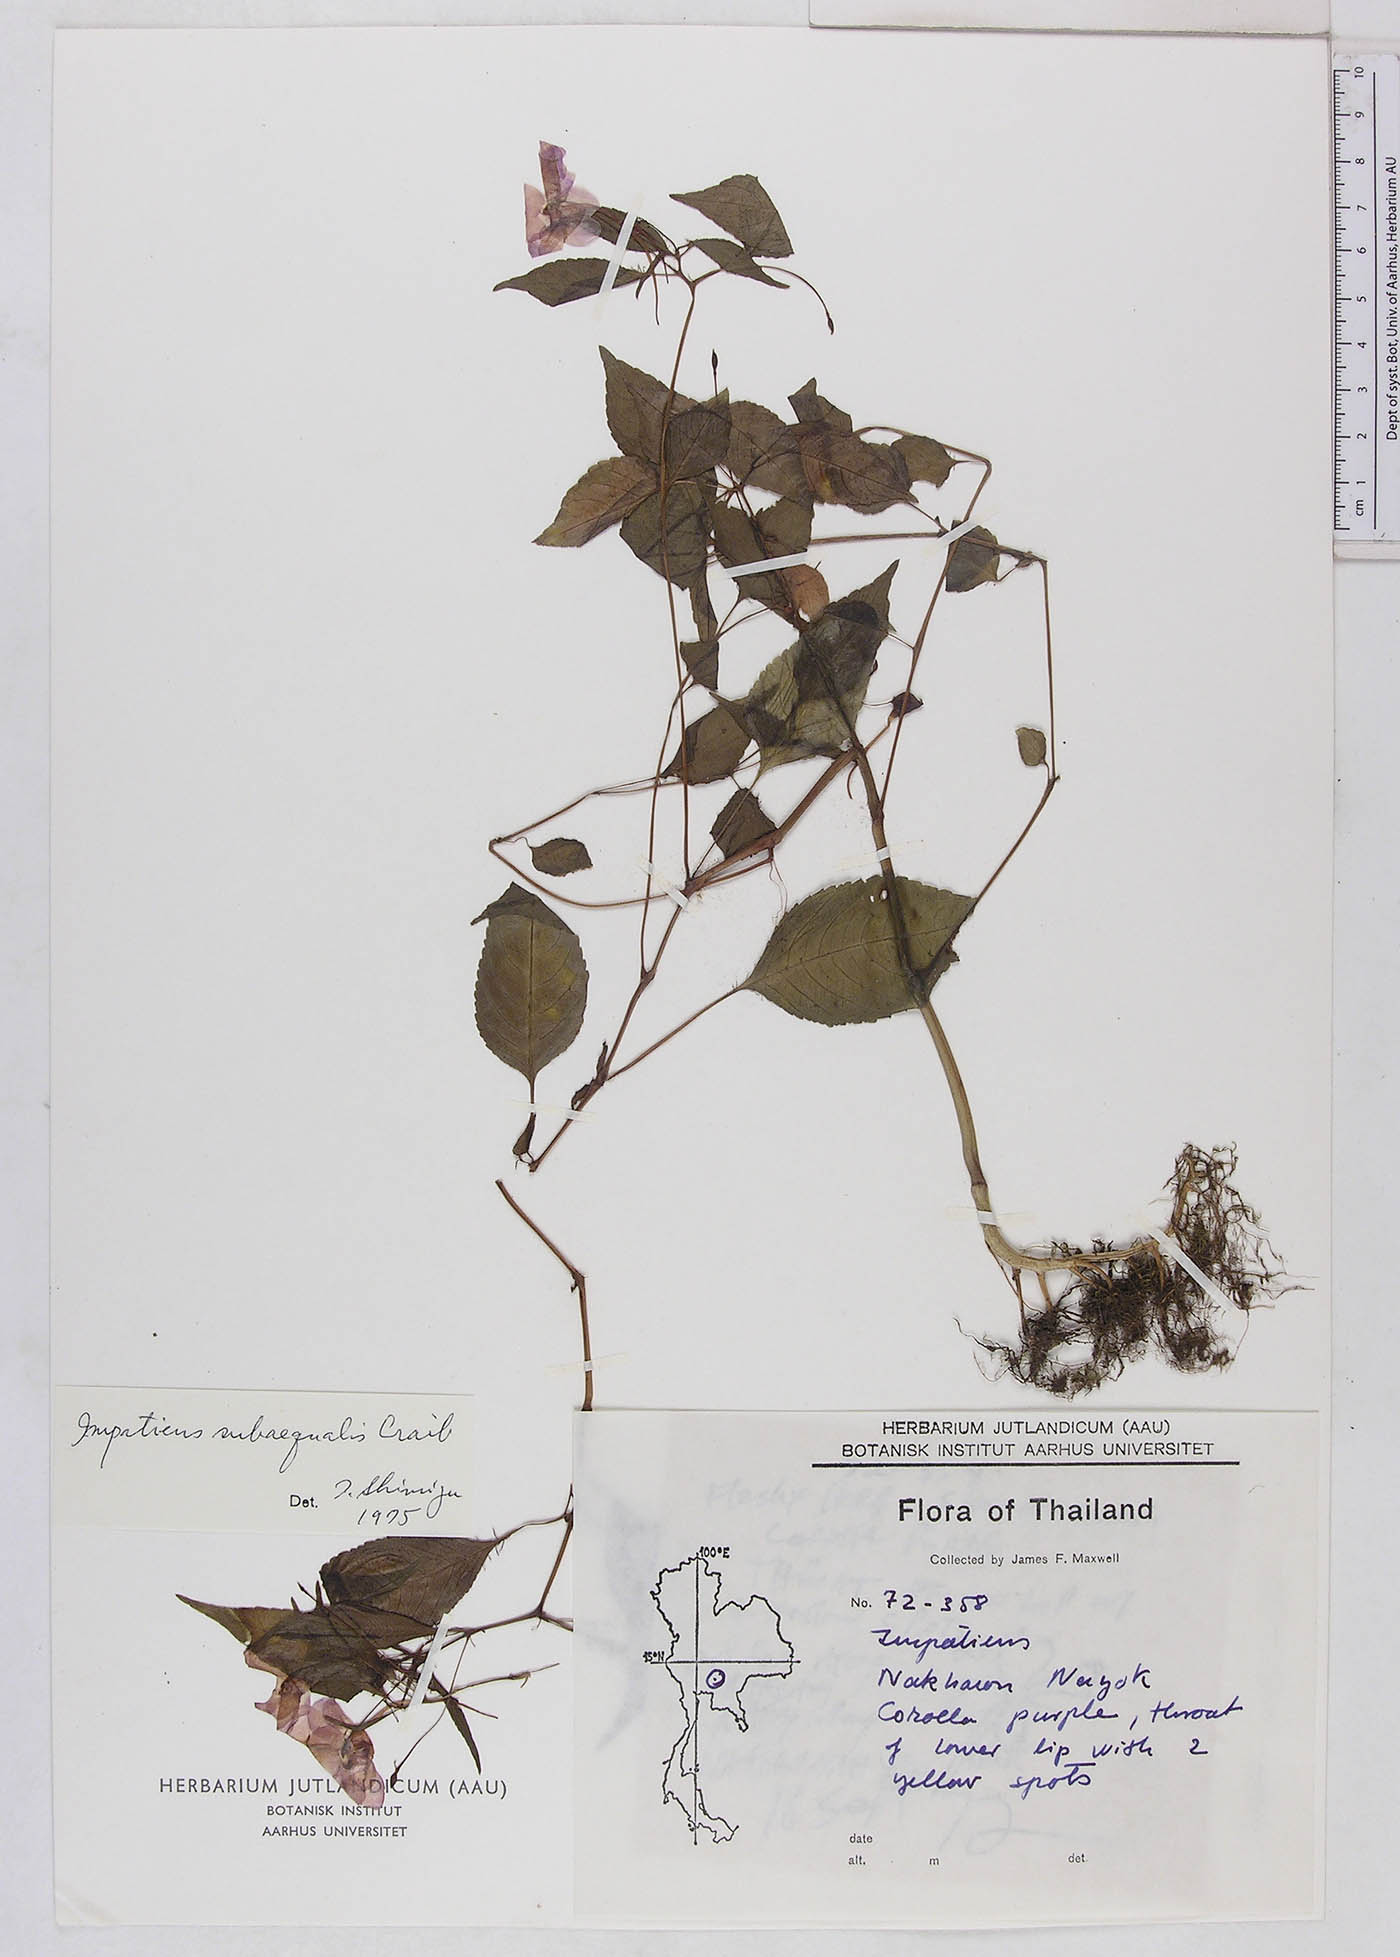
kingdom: Plantae
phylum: Tracheophyta
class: Magnoliopsida
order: Ericales
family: Balsaminaceae
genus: Impatiens
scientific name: Impatiens violiflora
